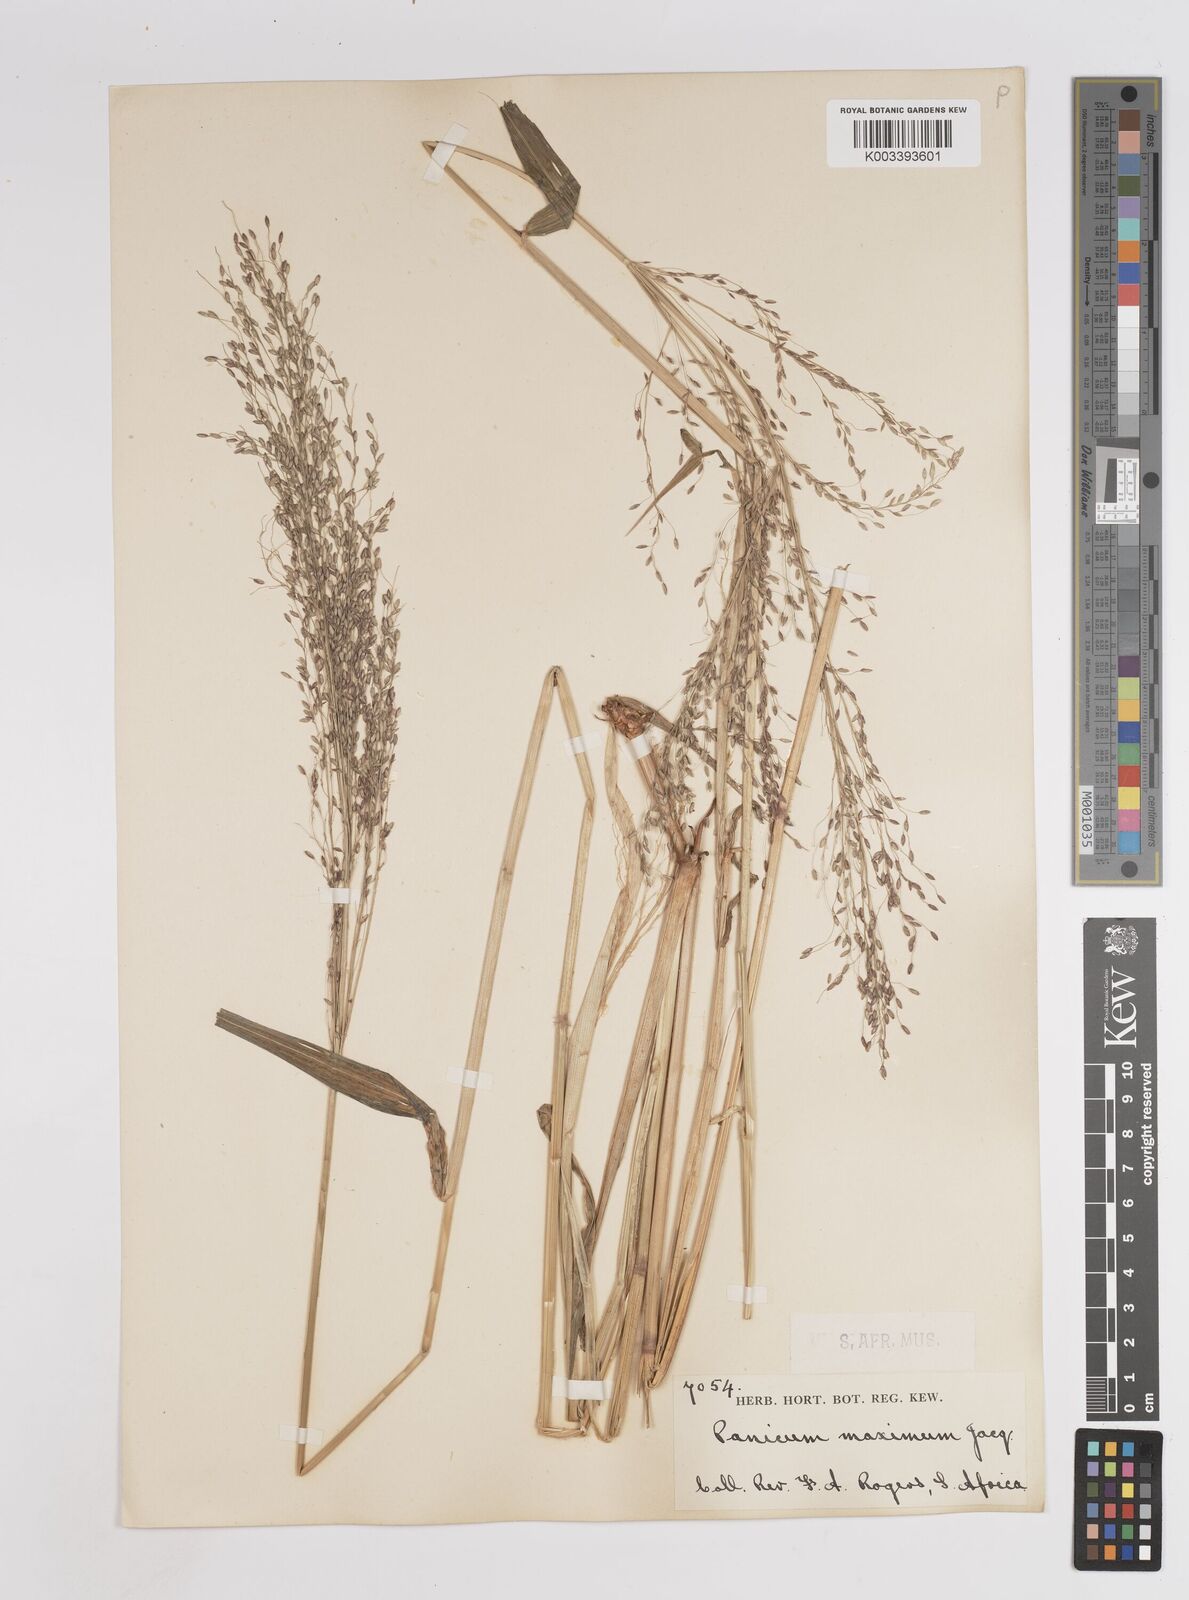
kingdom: Plantae
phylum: Tracheophyta
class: Liliopsida
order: Poales
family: Poaceae
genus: Megathyrsus
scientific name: Megathyrsus maximus
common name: Guineagrass
